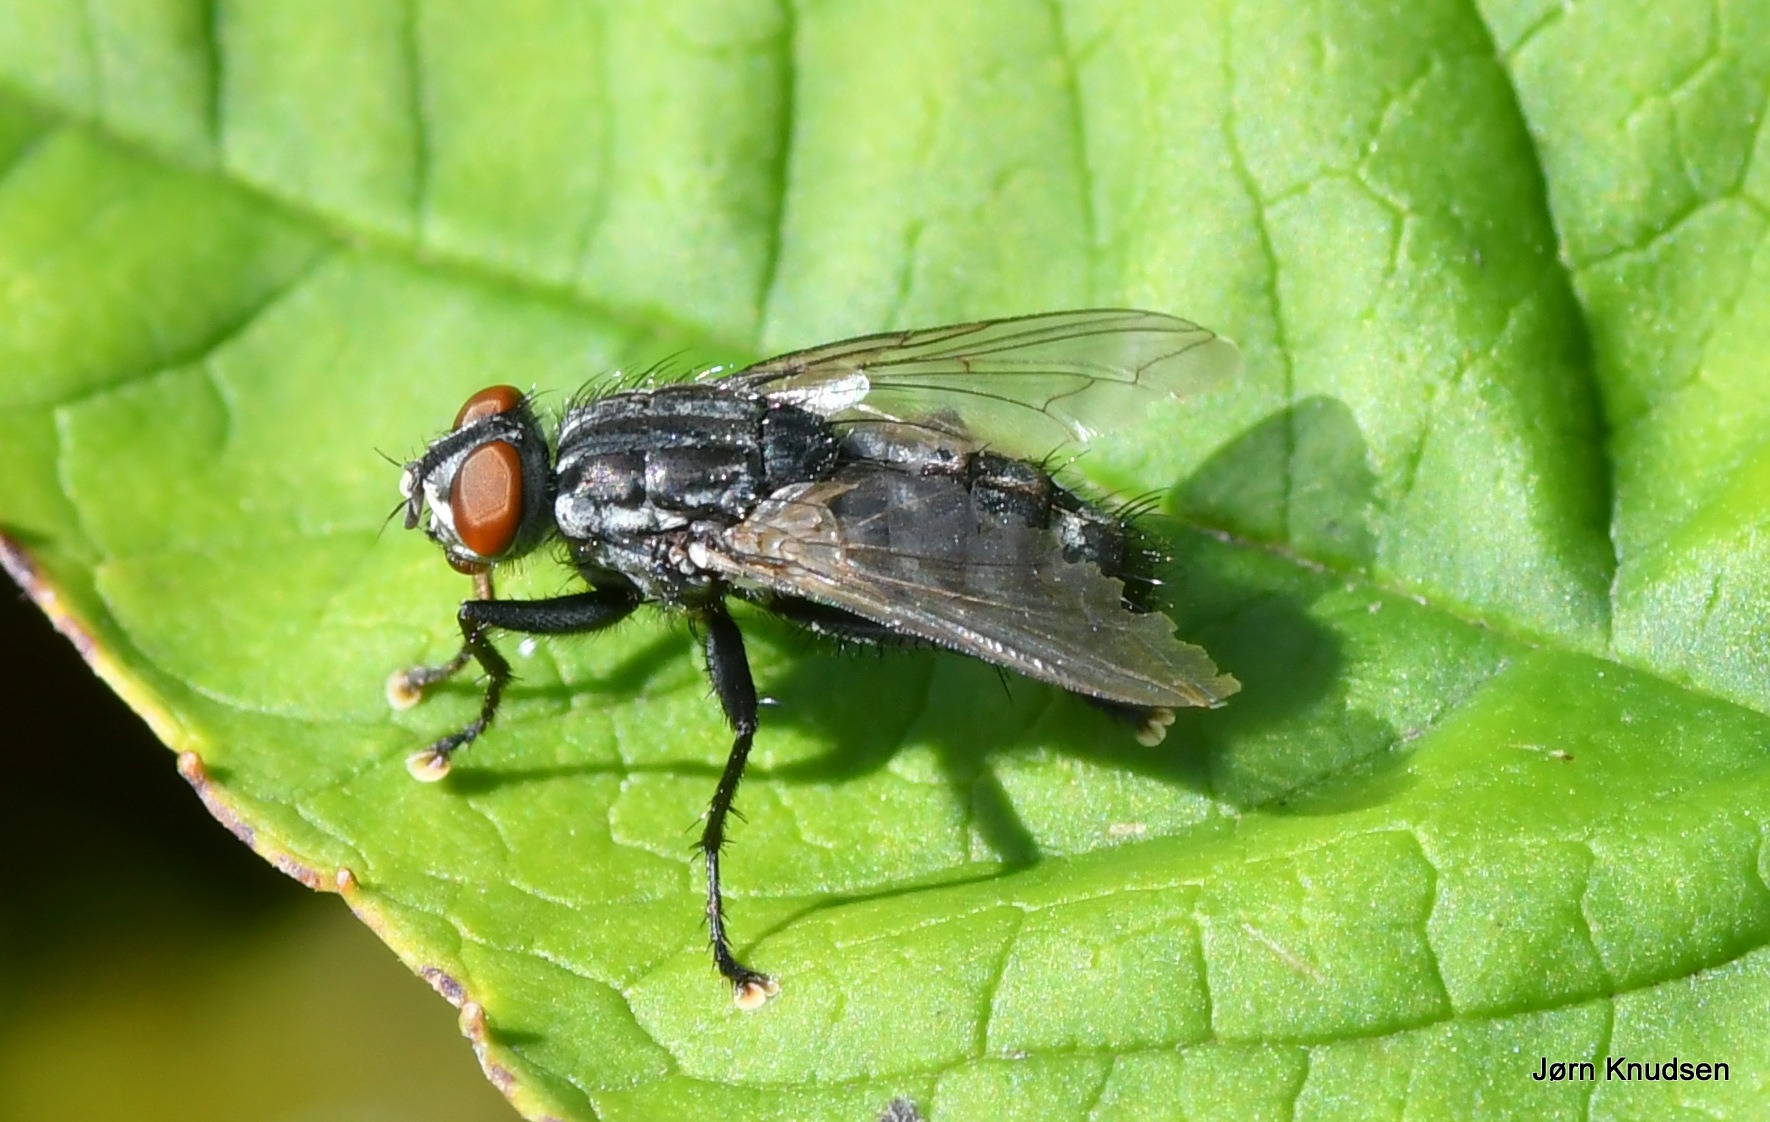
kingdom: Animalia
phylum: Arthropoda
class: Insecta
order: Diptera
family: Sarcophagidae
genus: Sarcophaga
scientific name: Sarcophaga
